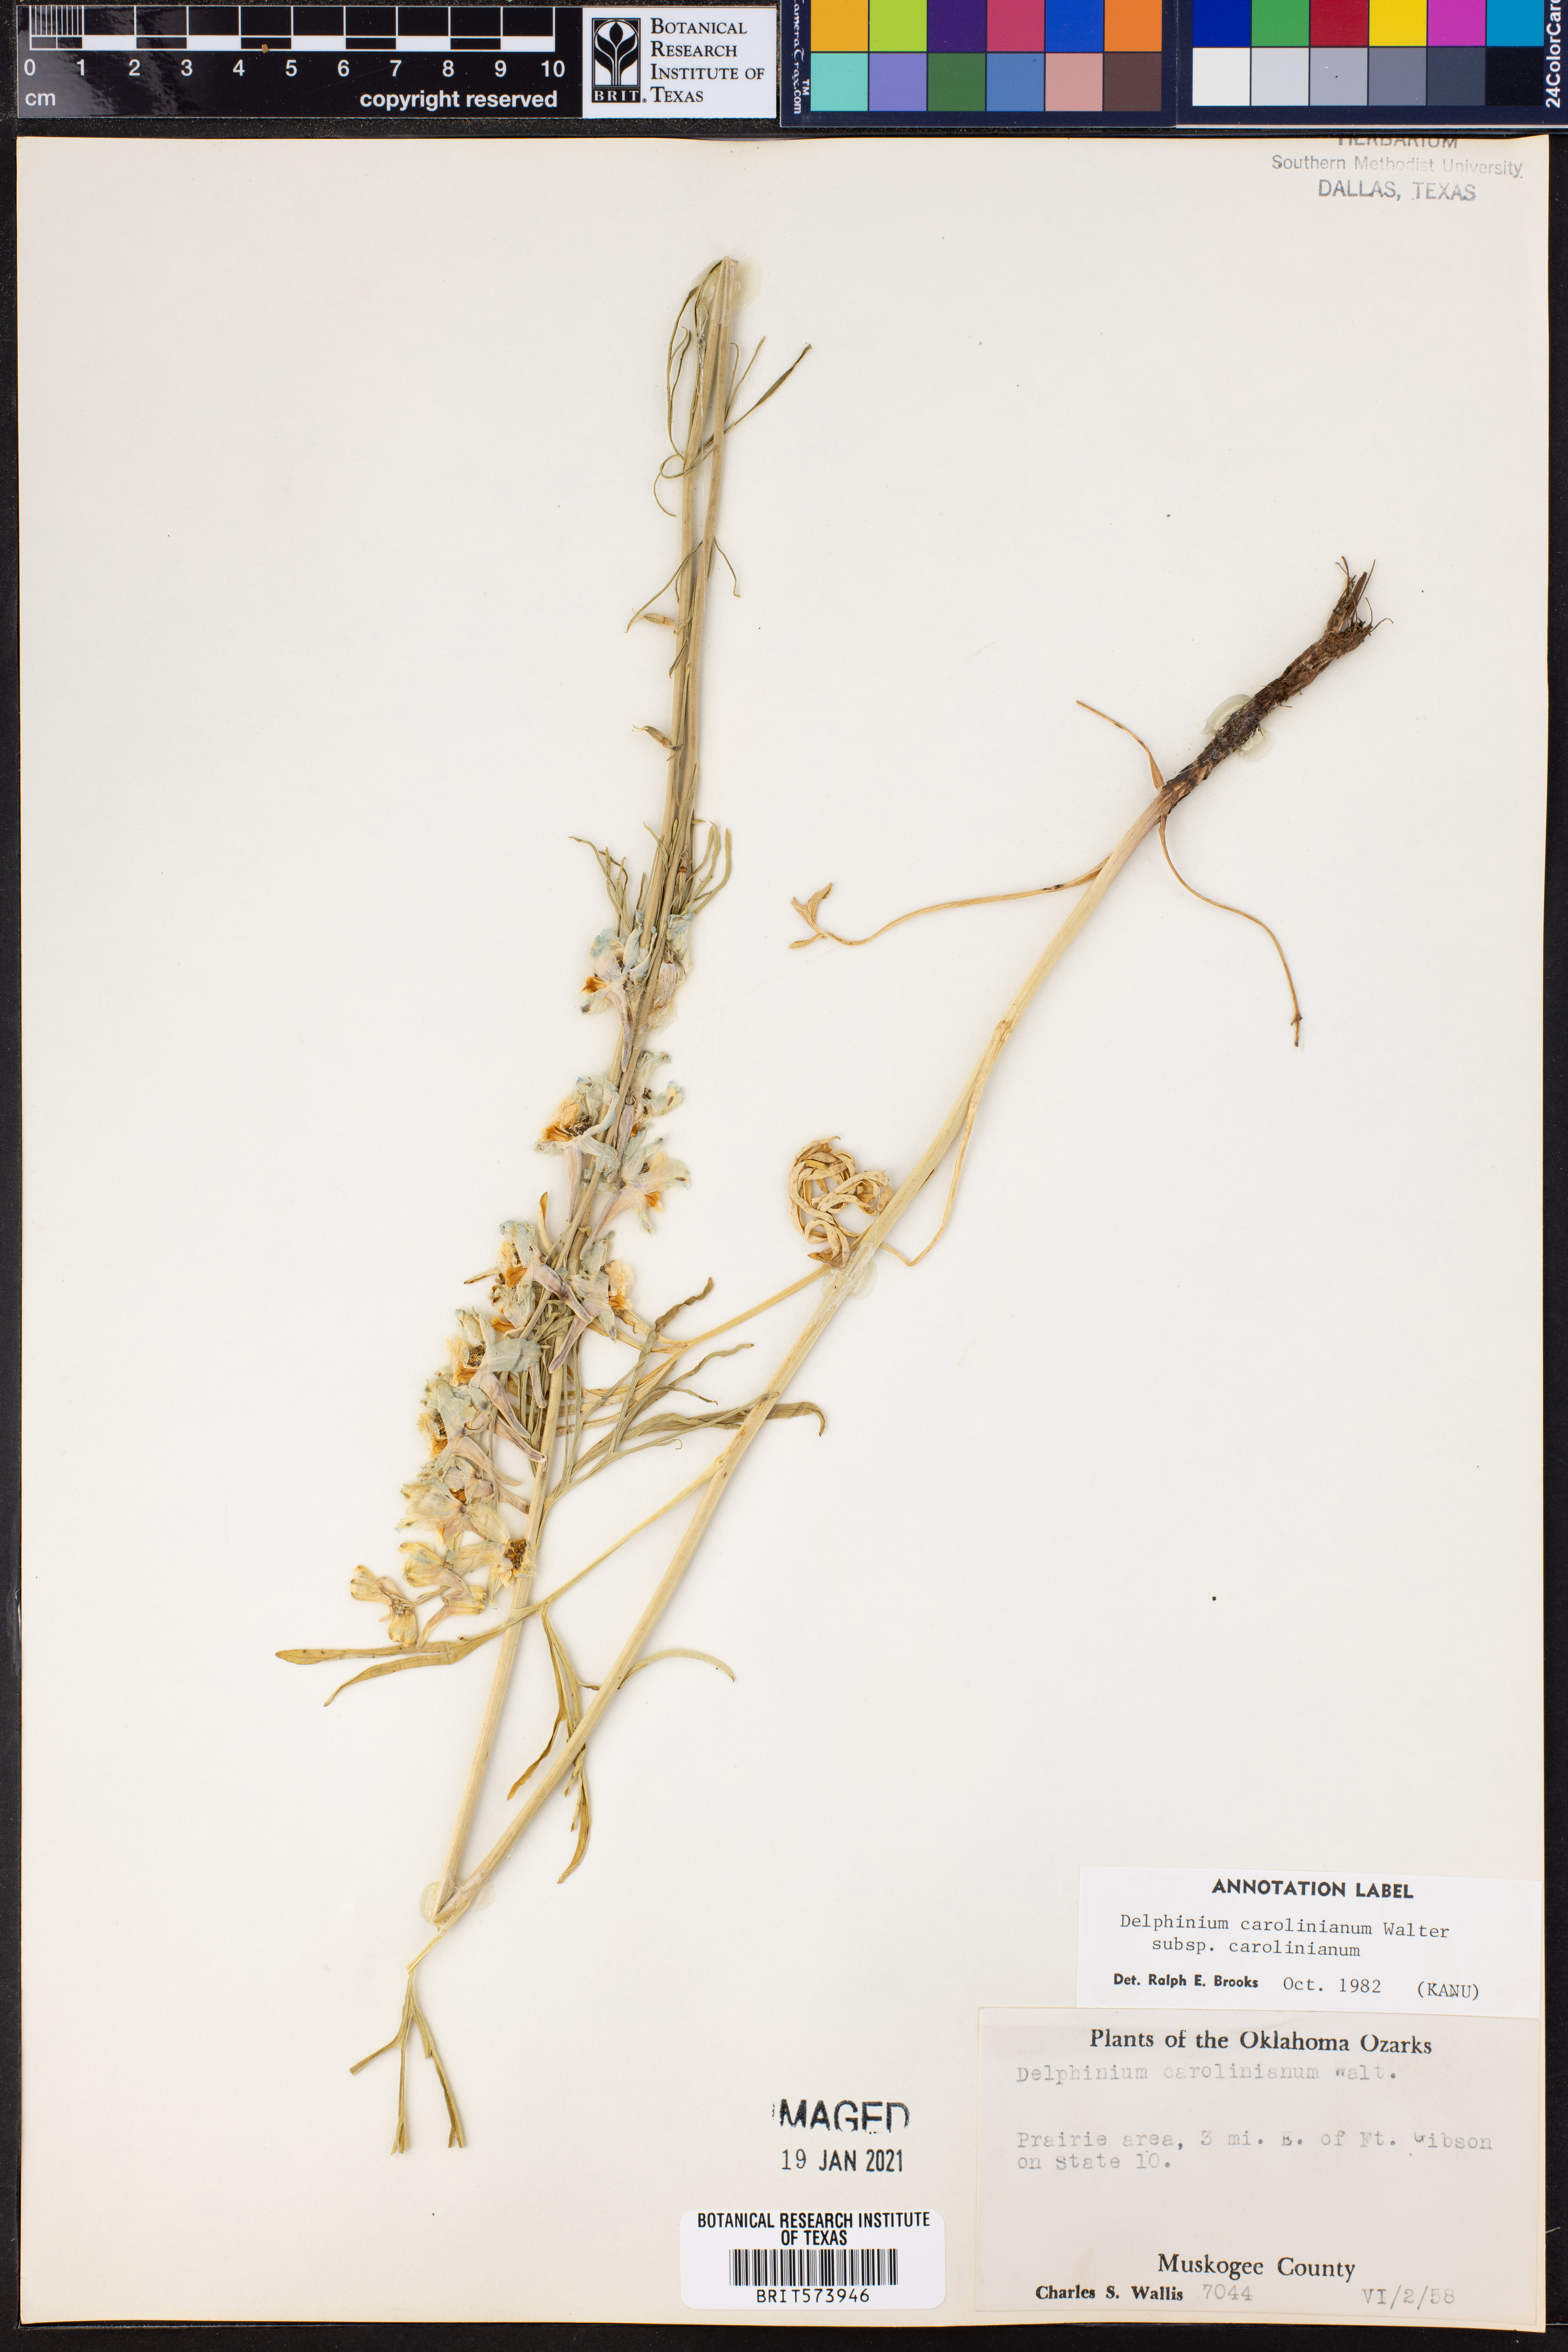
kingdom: Plantae
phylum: Tracheophyta
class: Magnoliopsida
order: Ranunculales
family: Ranunculaceae
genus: Delphinium
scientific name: Delphinium carolinianum
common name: Carolina larkspur
